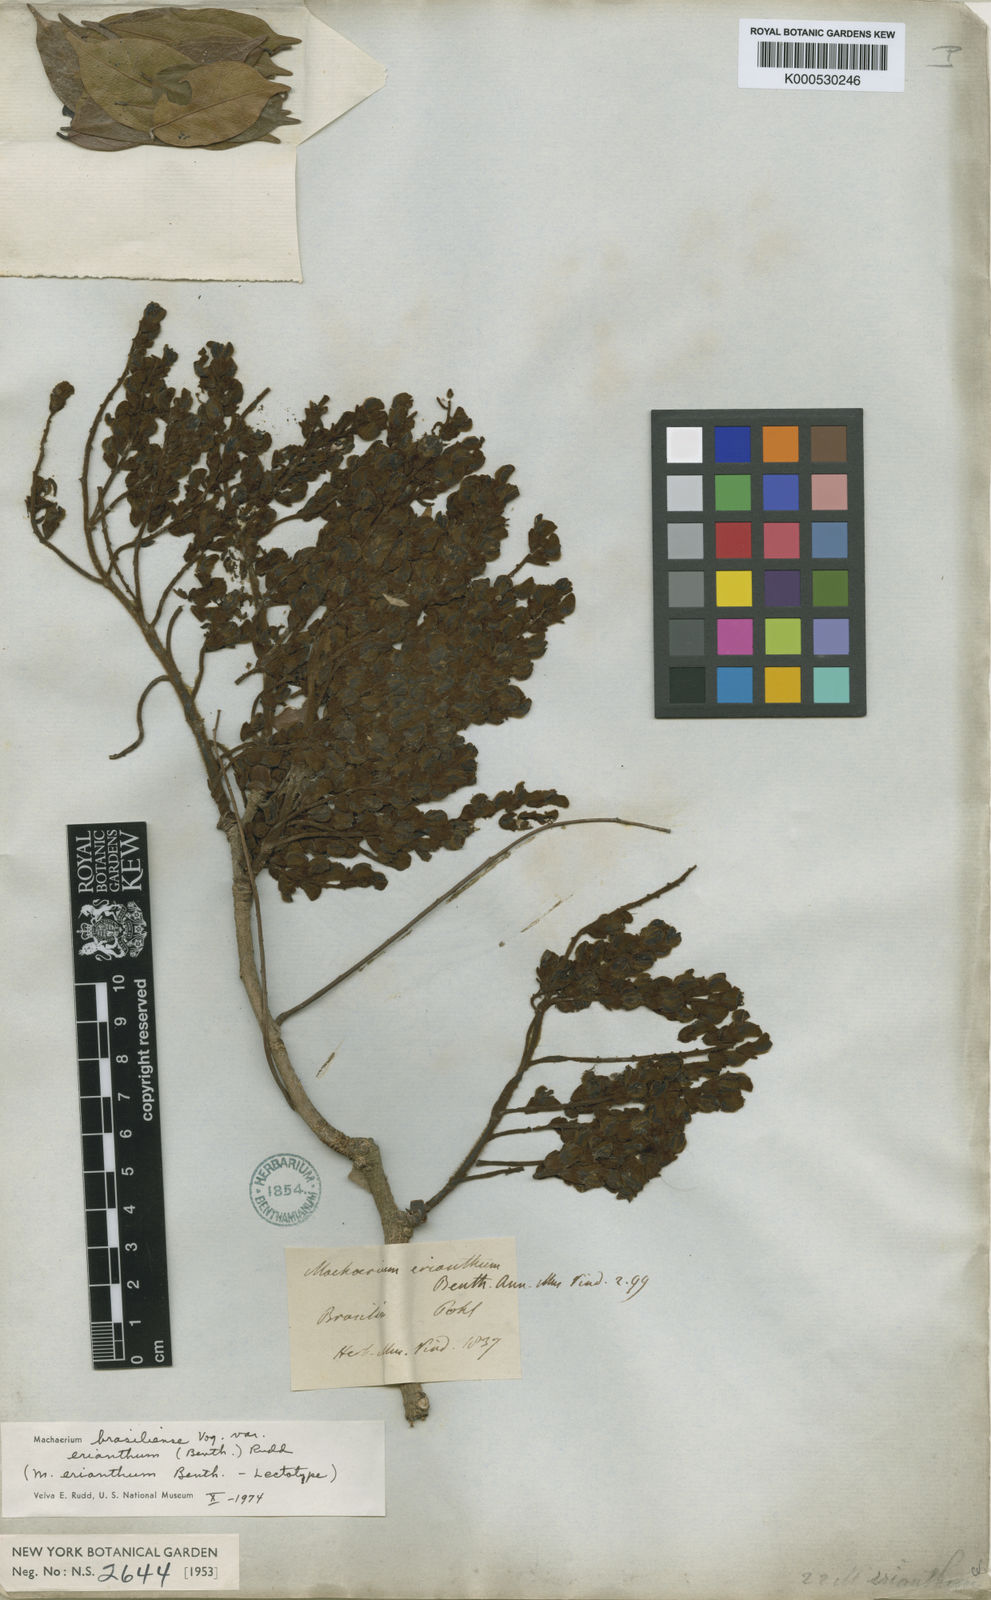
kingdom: Plantae
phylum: Tracheophyta
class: Magnoliopsida
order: Fabales
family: Fabaceae
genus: Machaerium
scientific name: Machaerium brasiliense
